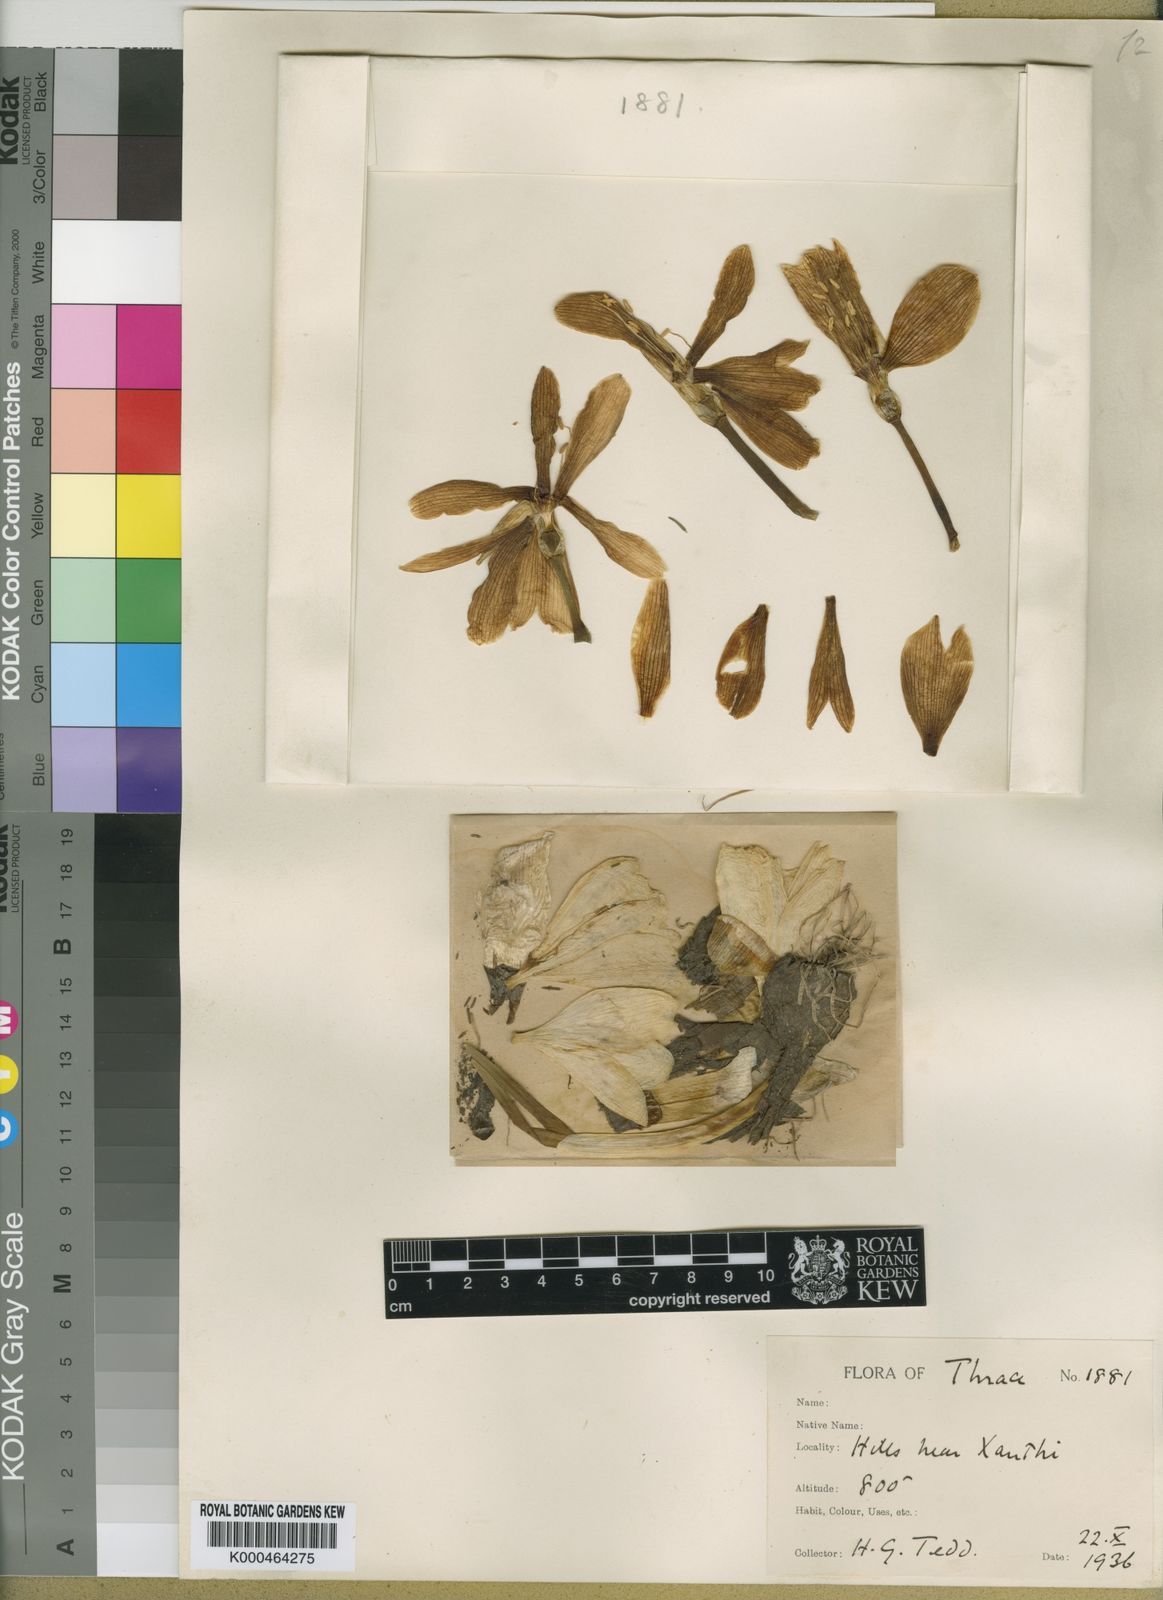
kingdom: Plantae
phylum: Tracheophyta
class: Liliopsida
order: Asparagales
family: Amaryllidaceae
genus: Sternbergia
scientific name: Sternbergia
